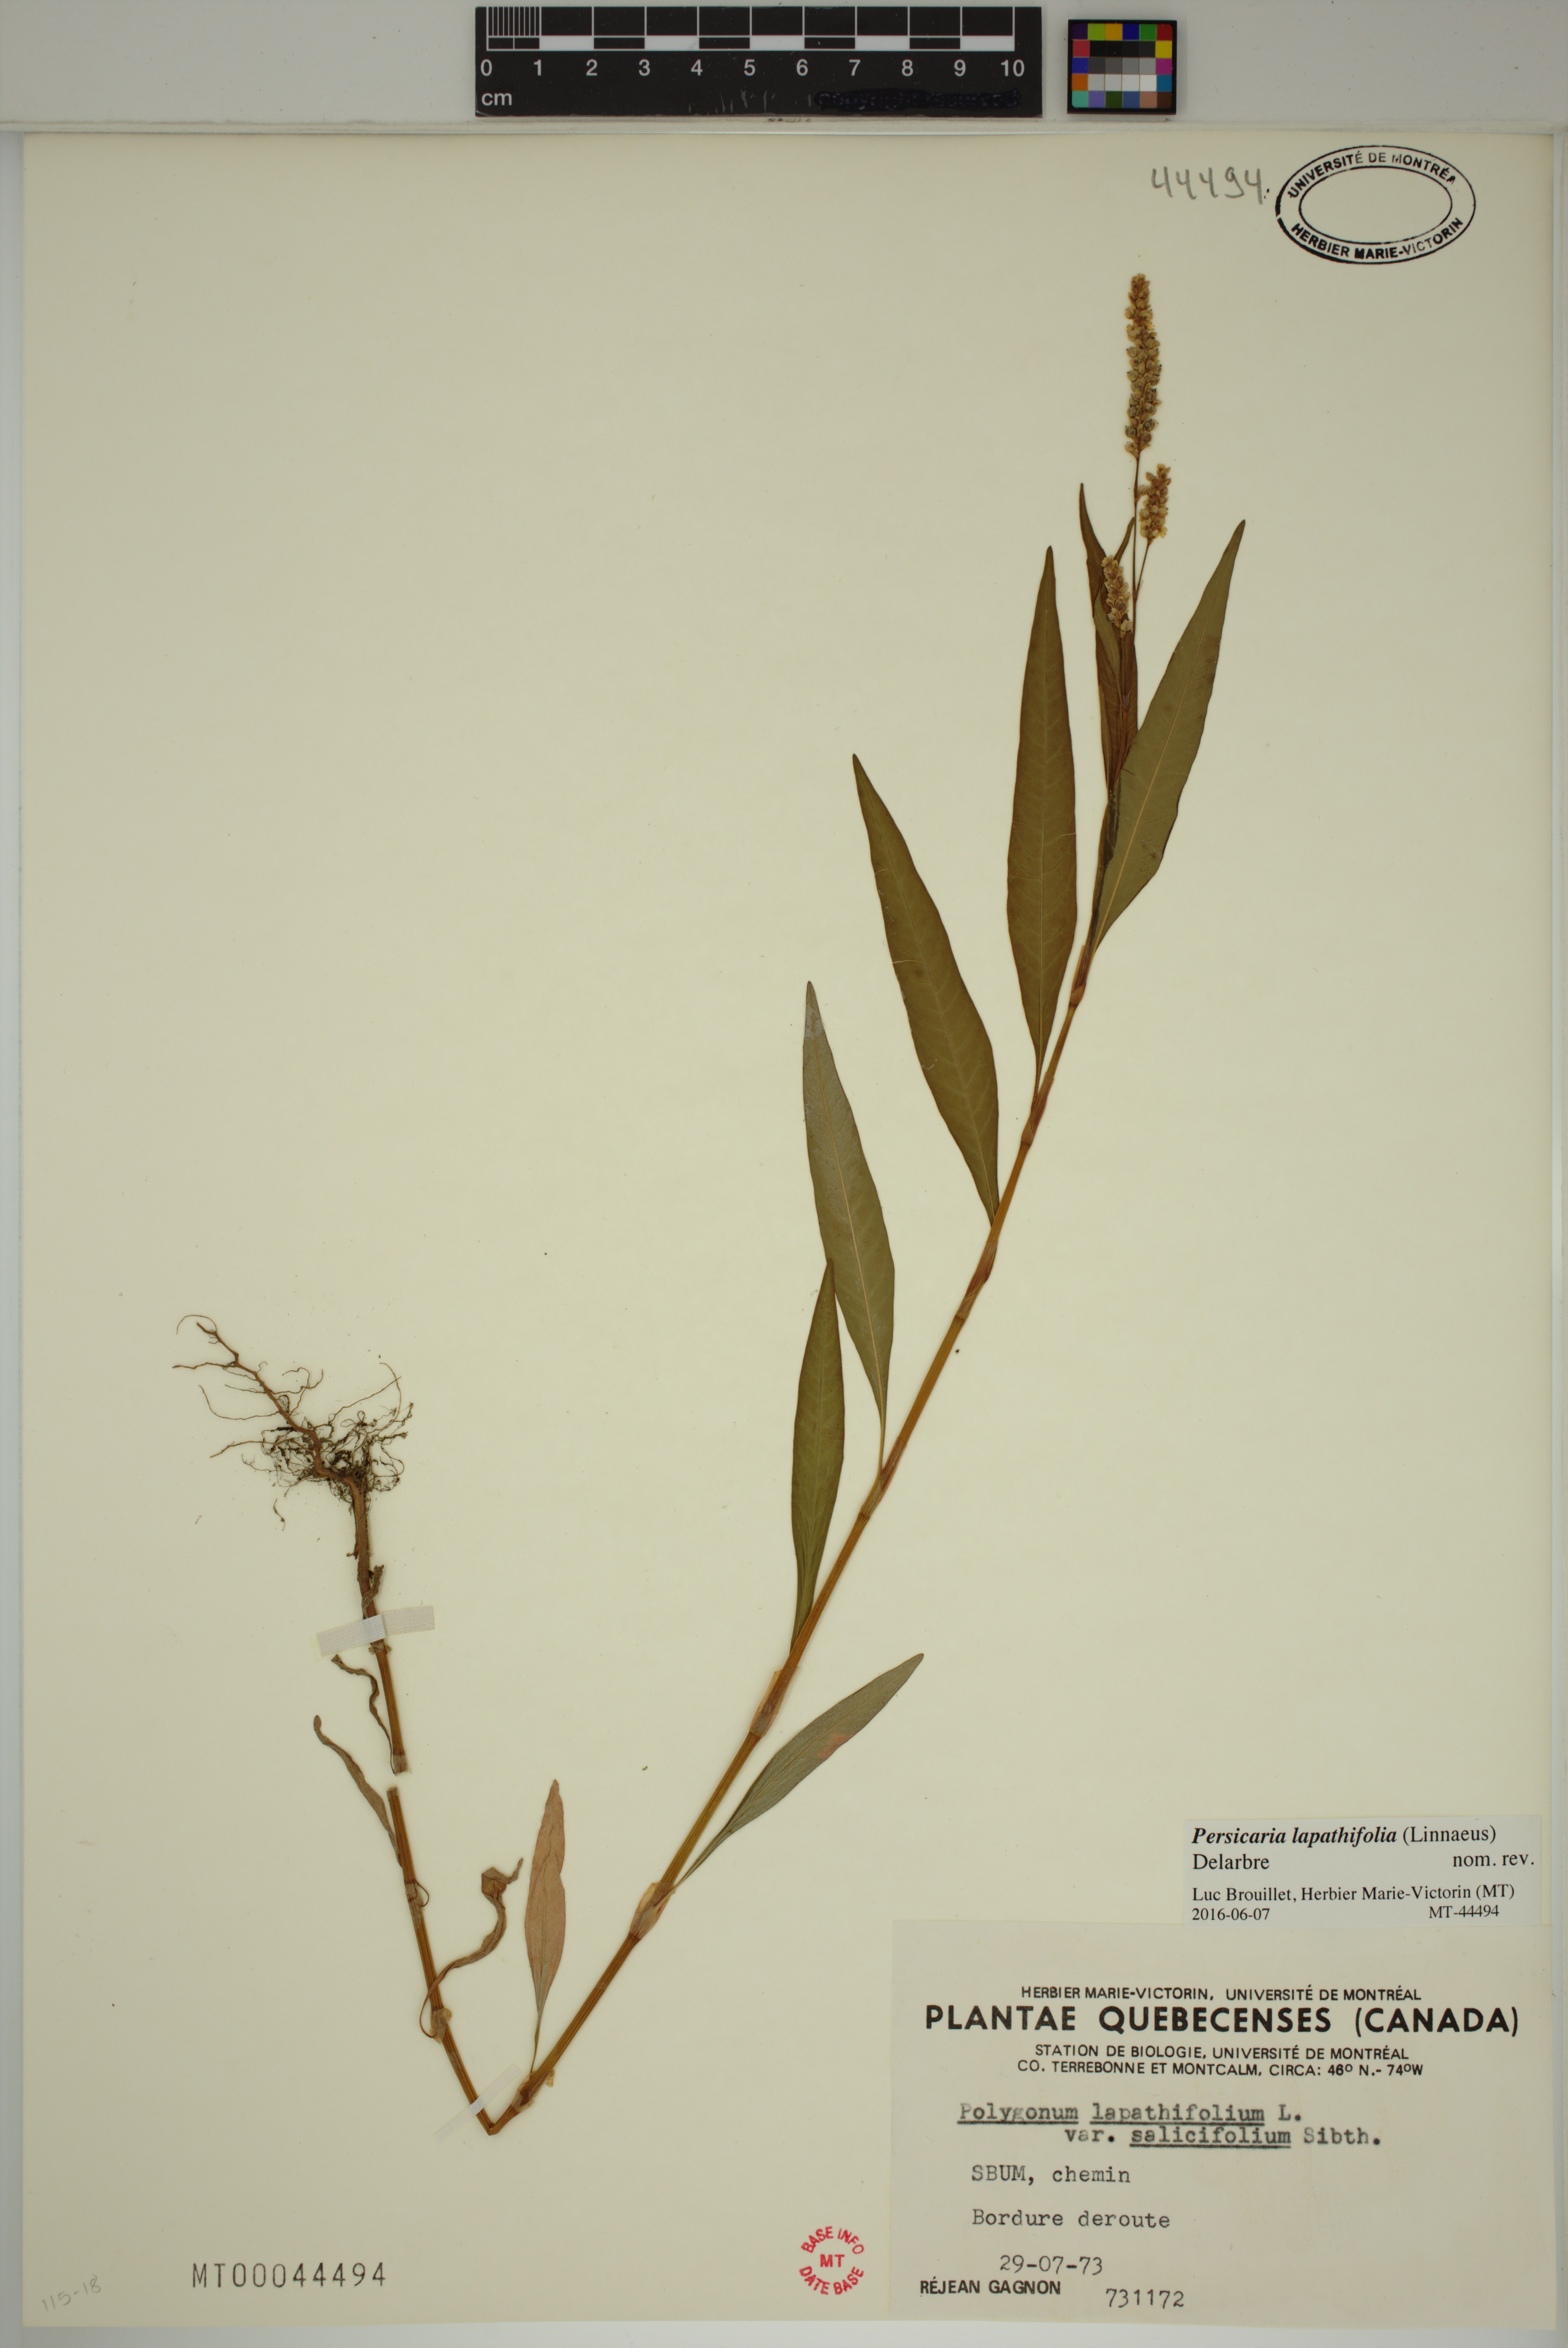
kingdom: Plantae
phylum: Tracheophyta
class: Magnoliopsida
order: Caryophyllales
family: Polygonaceae
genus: Persicaria
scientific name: Persicaria lapathifolia
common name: Curlytop knotweed
